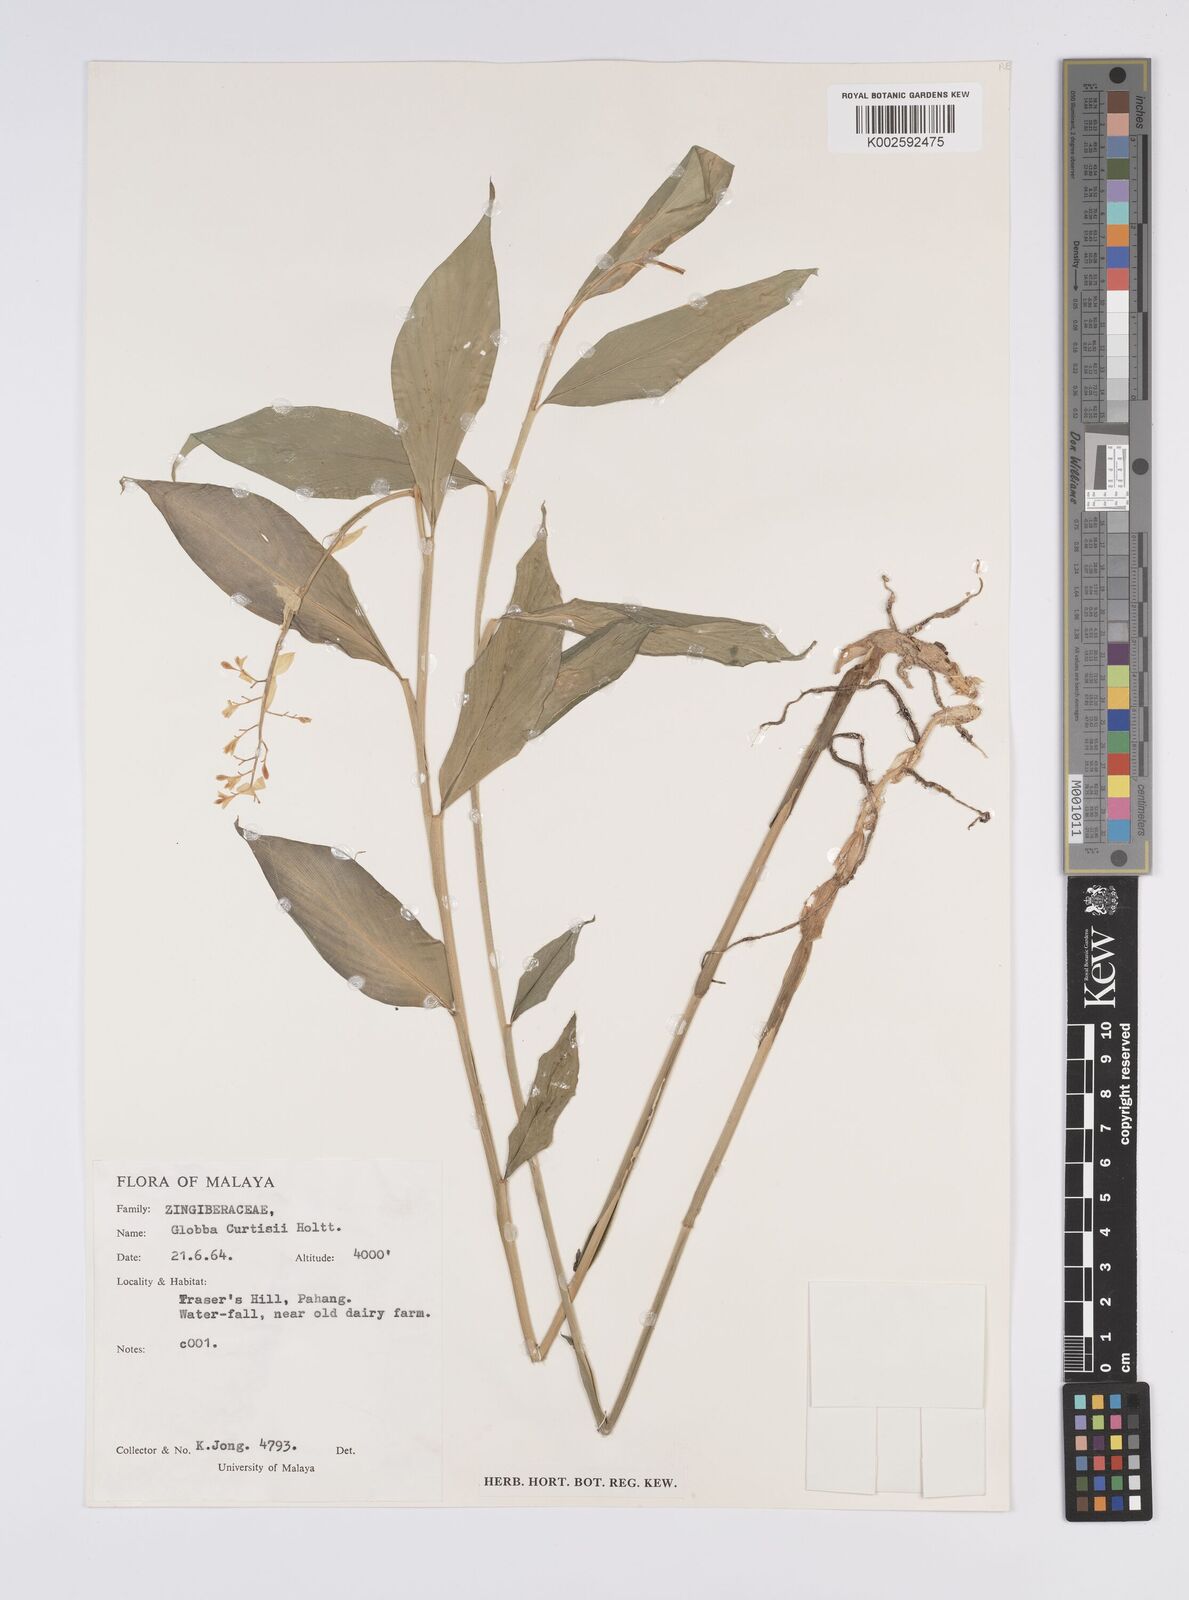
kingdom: Plantae
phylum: Tracheophyta
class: Liliopsida
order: Zingiberales
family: Zingiberaceae
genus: Globba
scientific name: Globba curtisii
